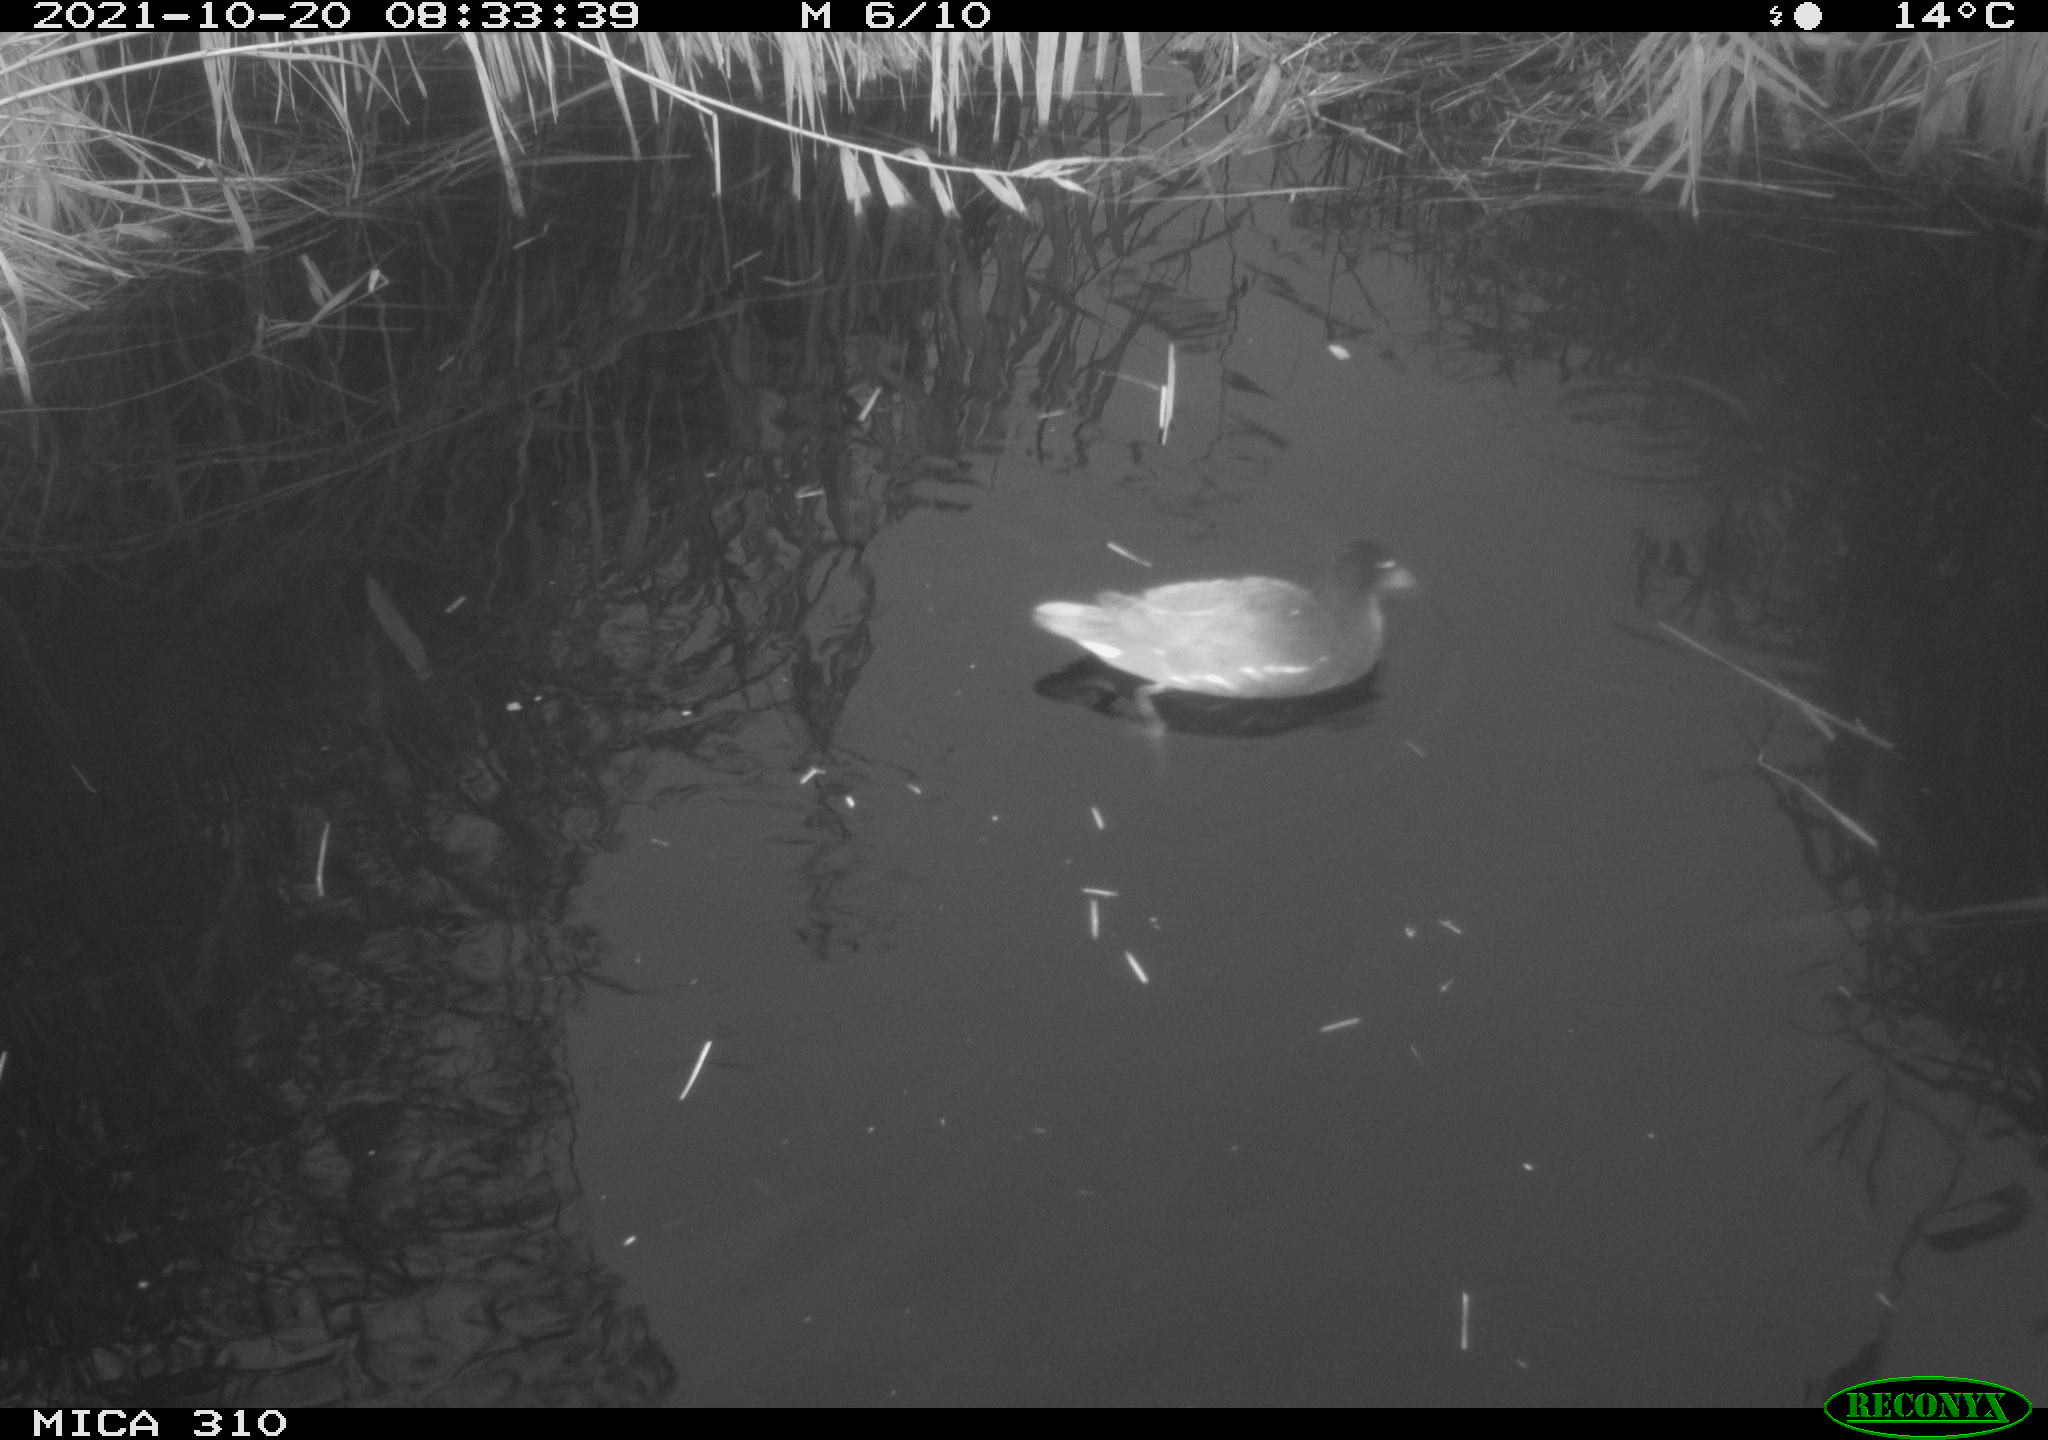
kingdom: Animalia
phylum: Chordata
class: Aves
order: Gruiformes
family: Rallidae
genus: Gallinula
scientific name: Gallinula chloropus
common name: Common moorhen
